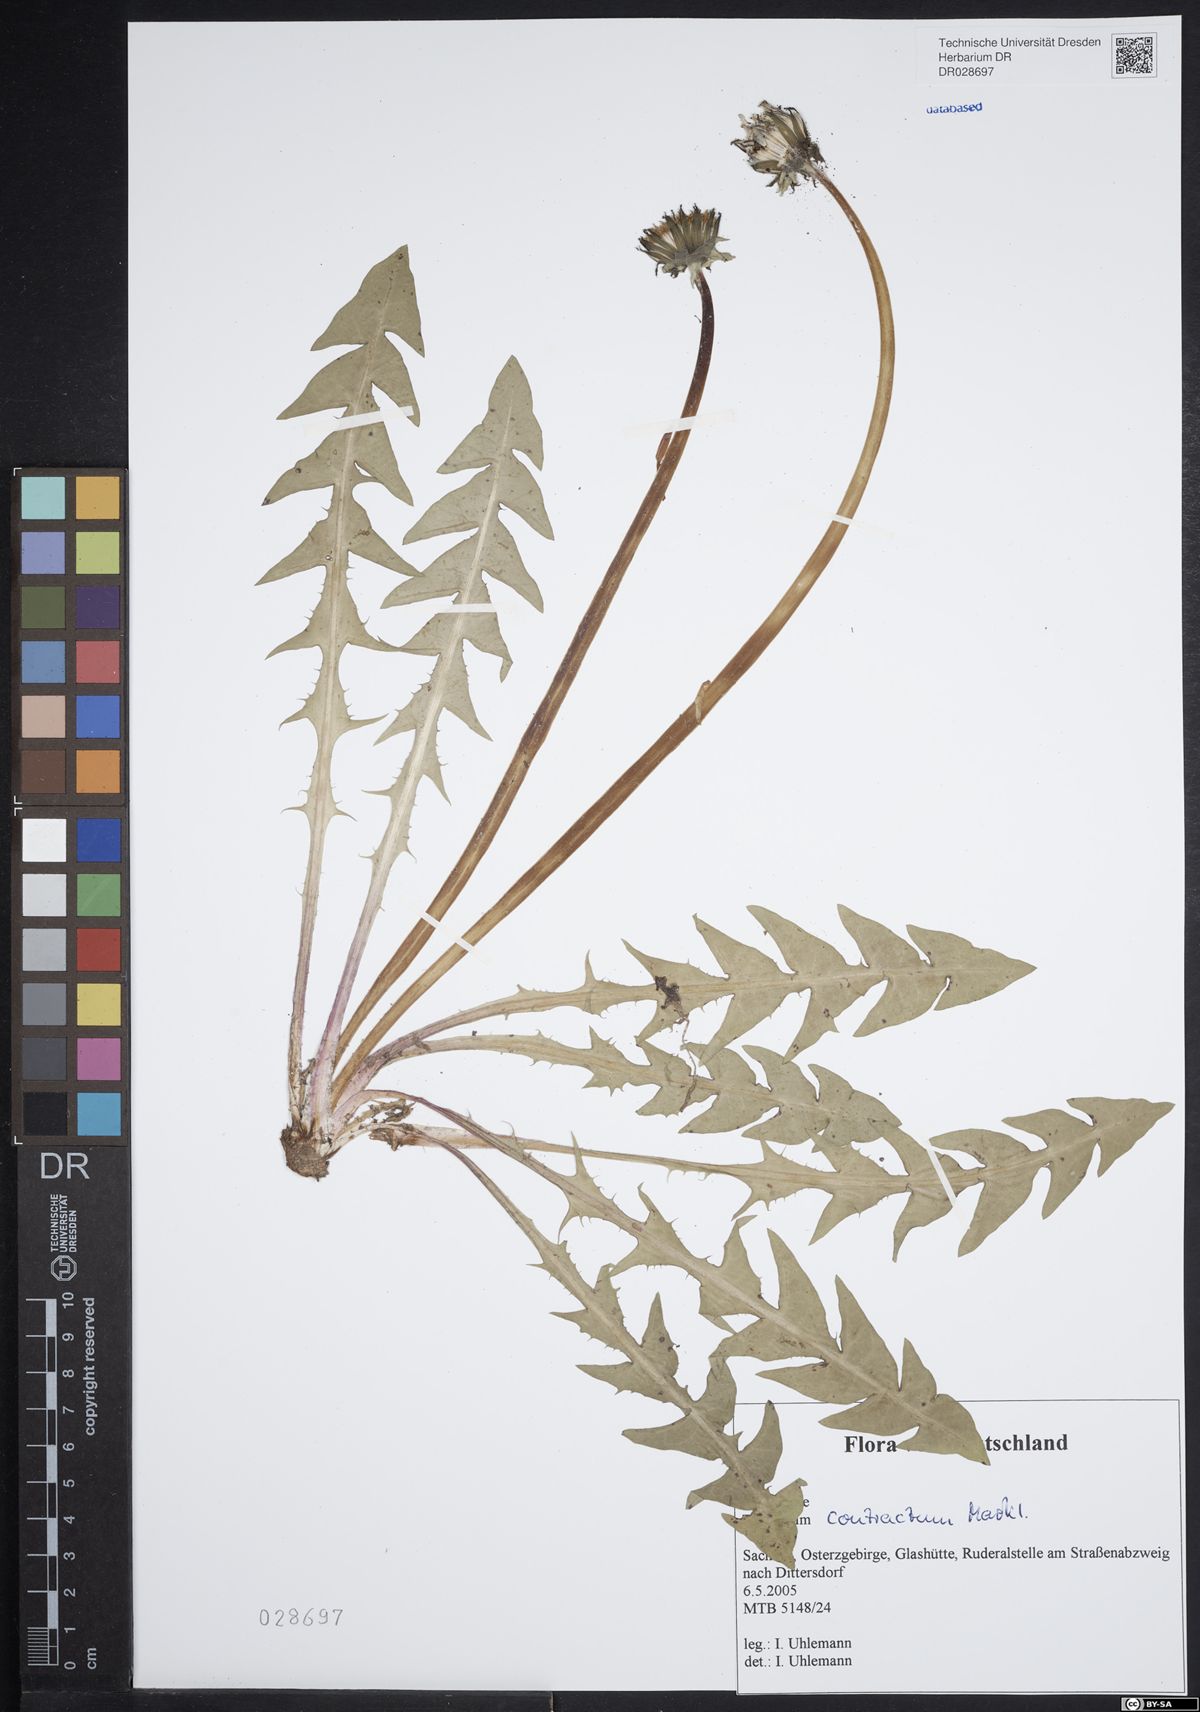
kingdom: Plantae
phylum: Tracheophyta
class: Magnoliopsida
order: Asterales
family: Asteraceae
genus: Taraxacum
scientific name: Taraxacum contractum
